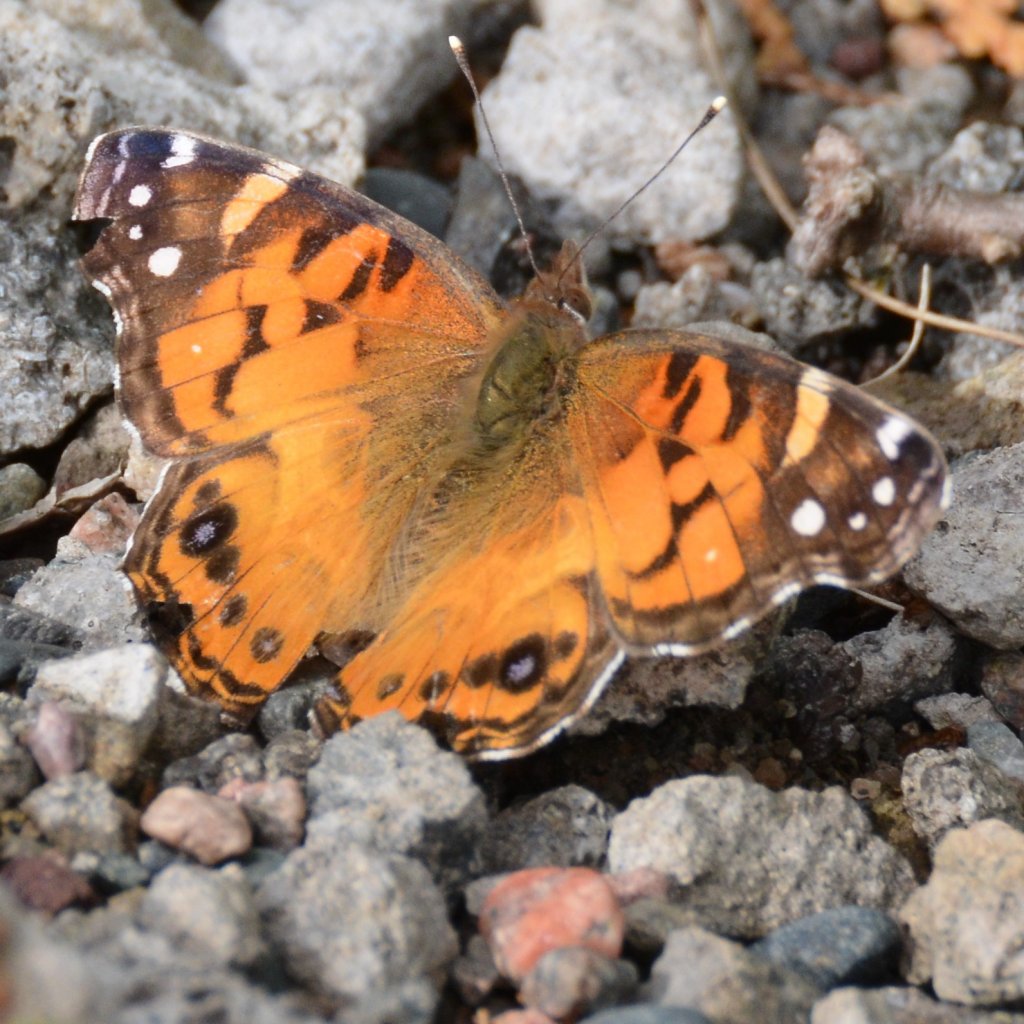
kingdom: Animalia
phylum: Arthropoda
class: Insecta
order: Lepidoptera
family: Nymphalidae
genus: Vanessa
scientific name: Vanessa virginiensis
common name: American Lady
